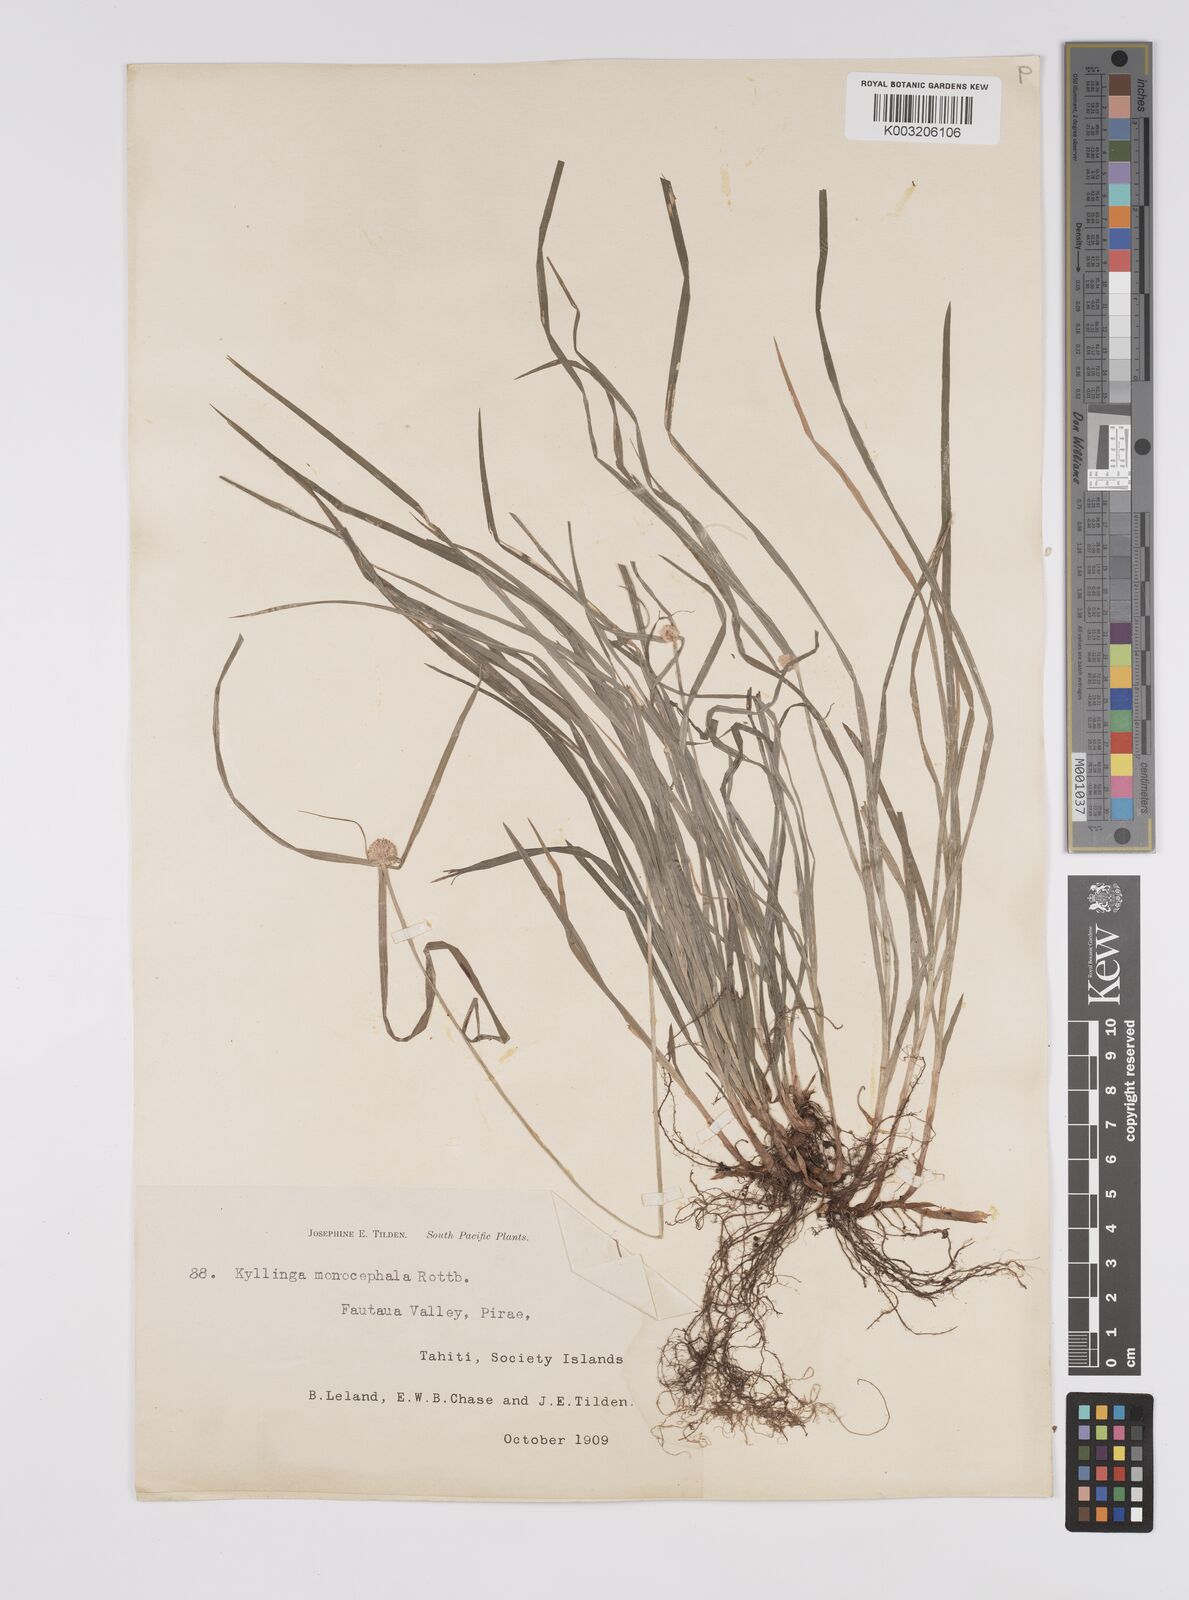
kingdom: Plantae
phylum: Tracheophyta
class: Liliopsida
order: Poales
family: Cyperaceae
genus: Cyperus
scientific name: Cyperus nemoralis
